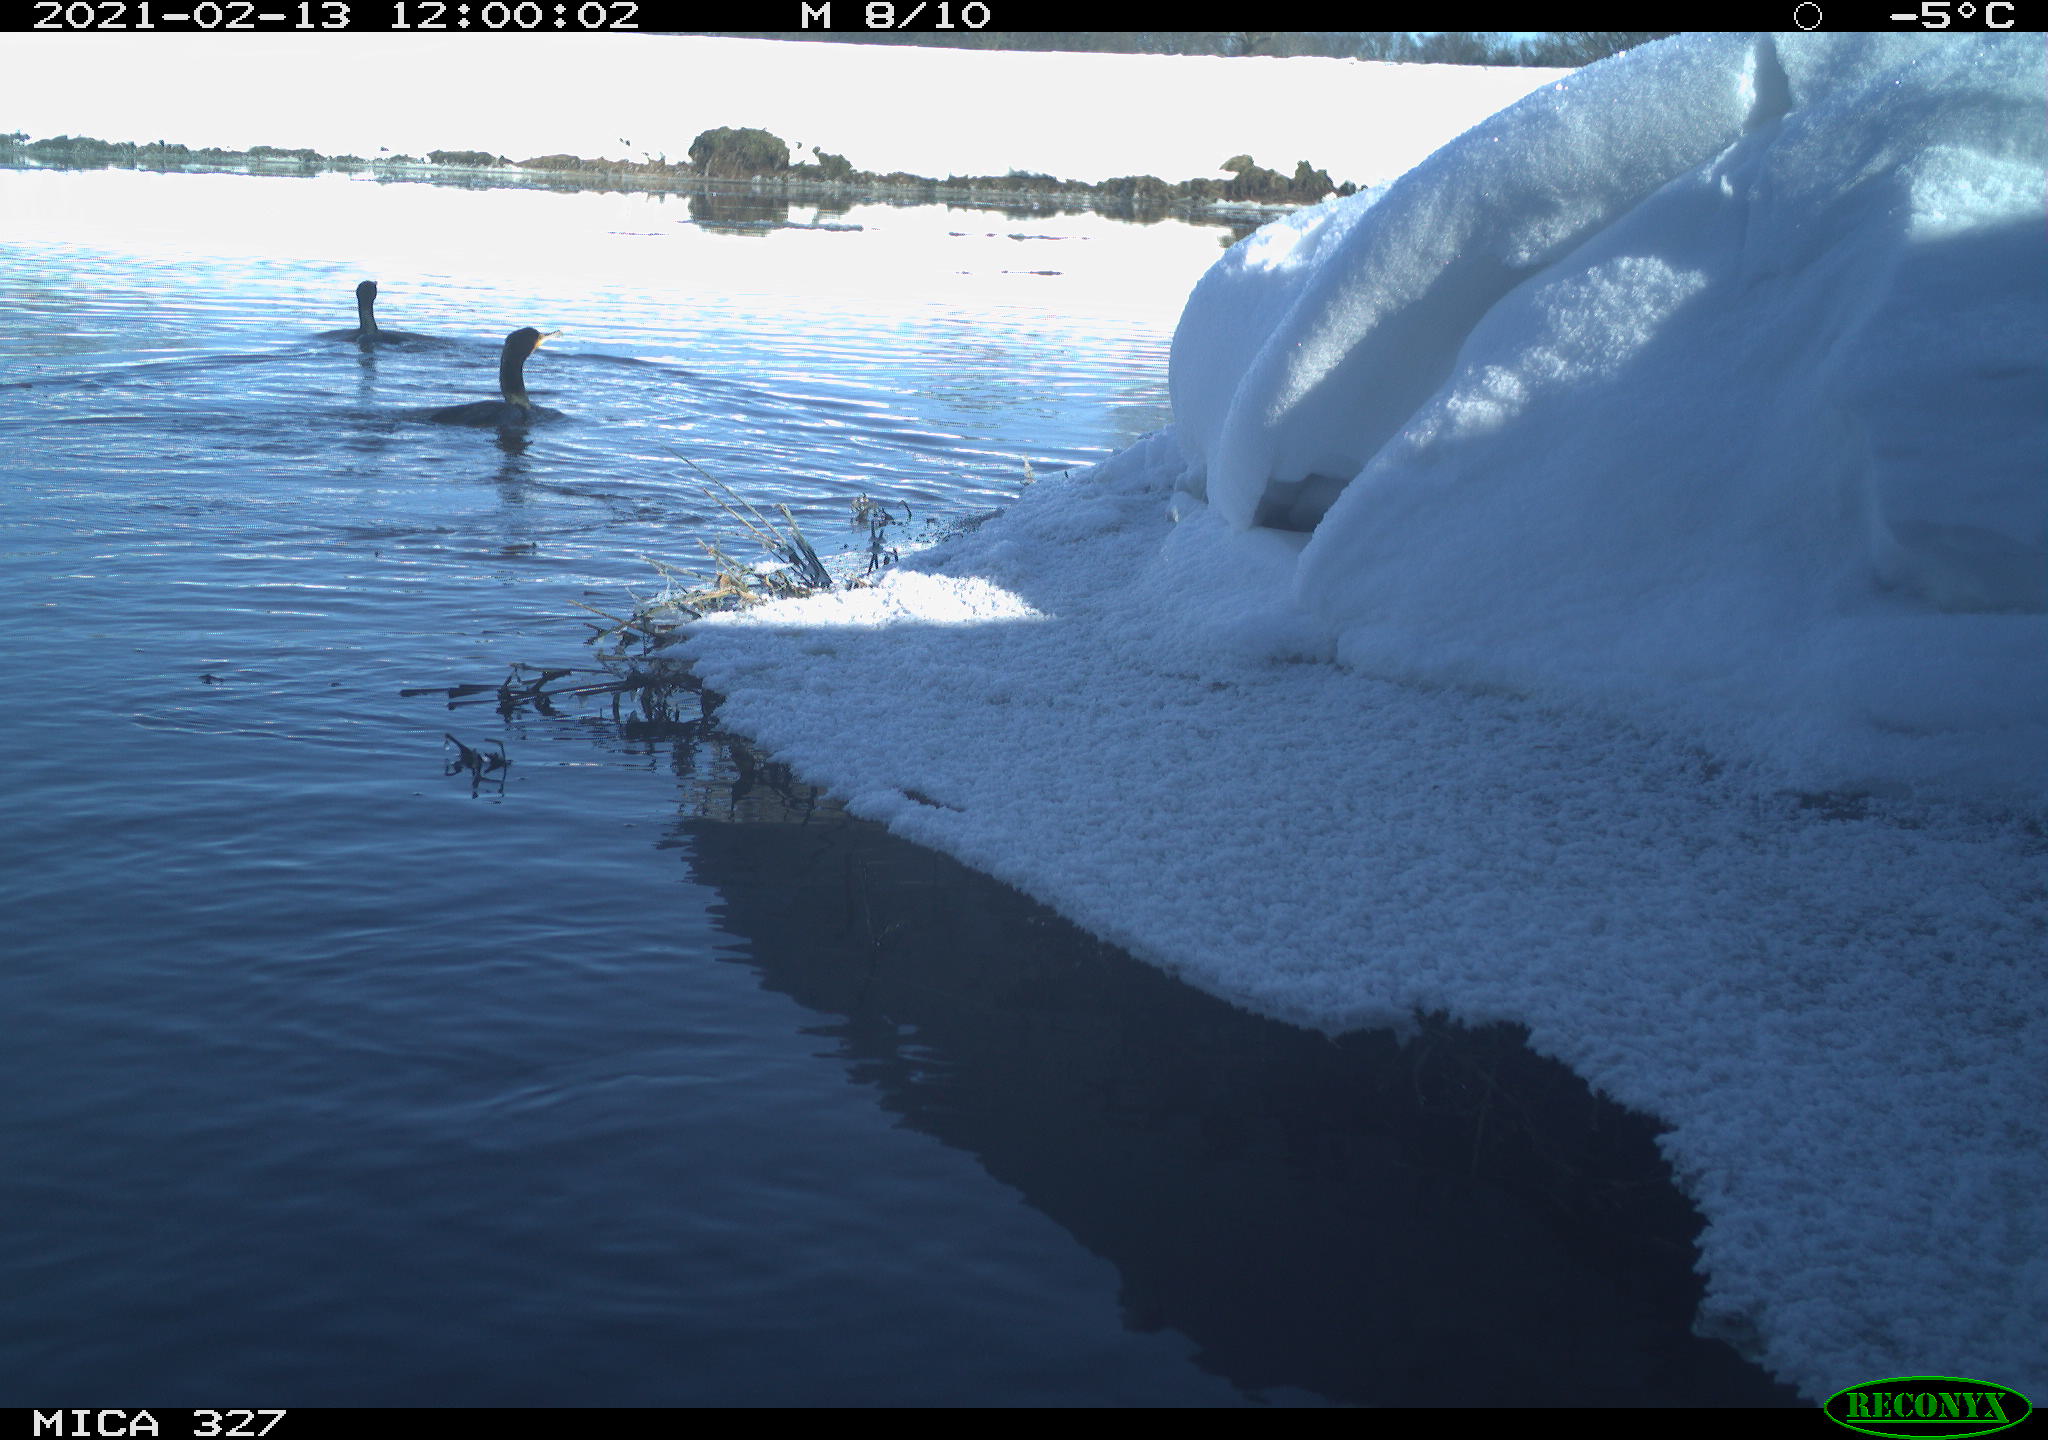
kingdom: Animalia
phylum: Chordata
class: Aves
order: Suliformes
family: Phalacrocoracidae
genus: Phalacrocorax
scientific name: Phalacrocorax carbo
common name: Great cormorant
